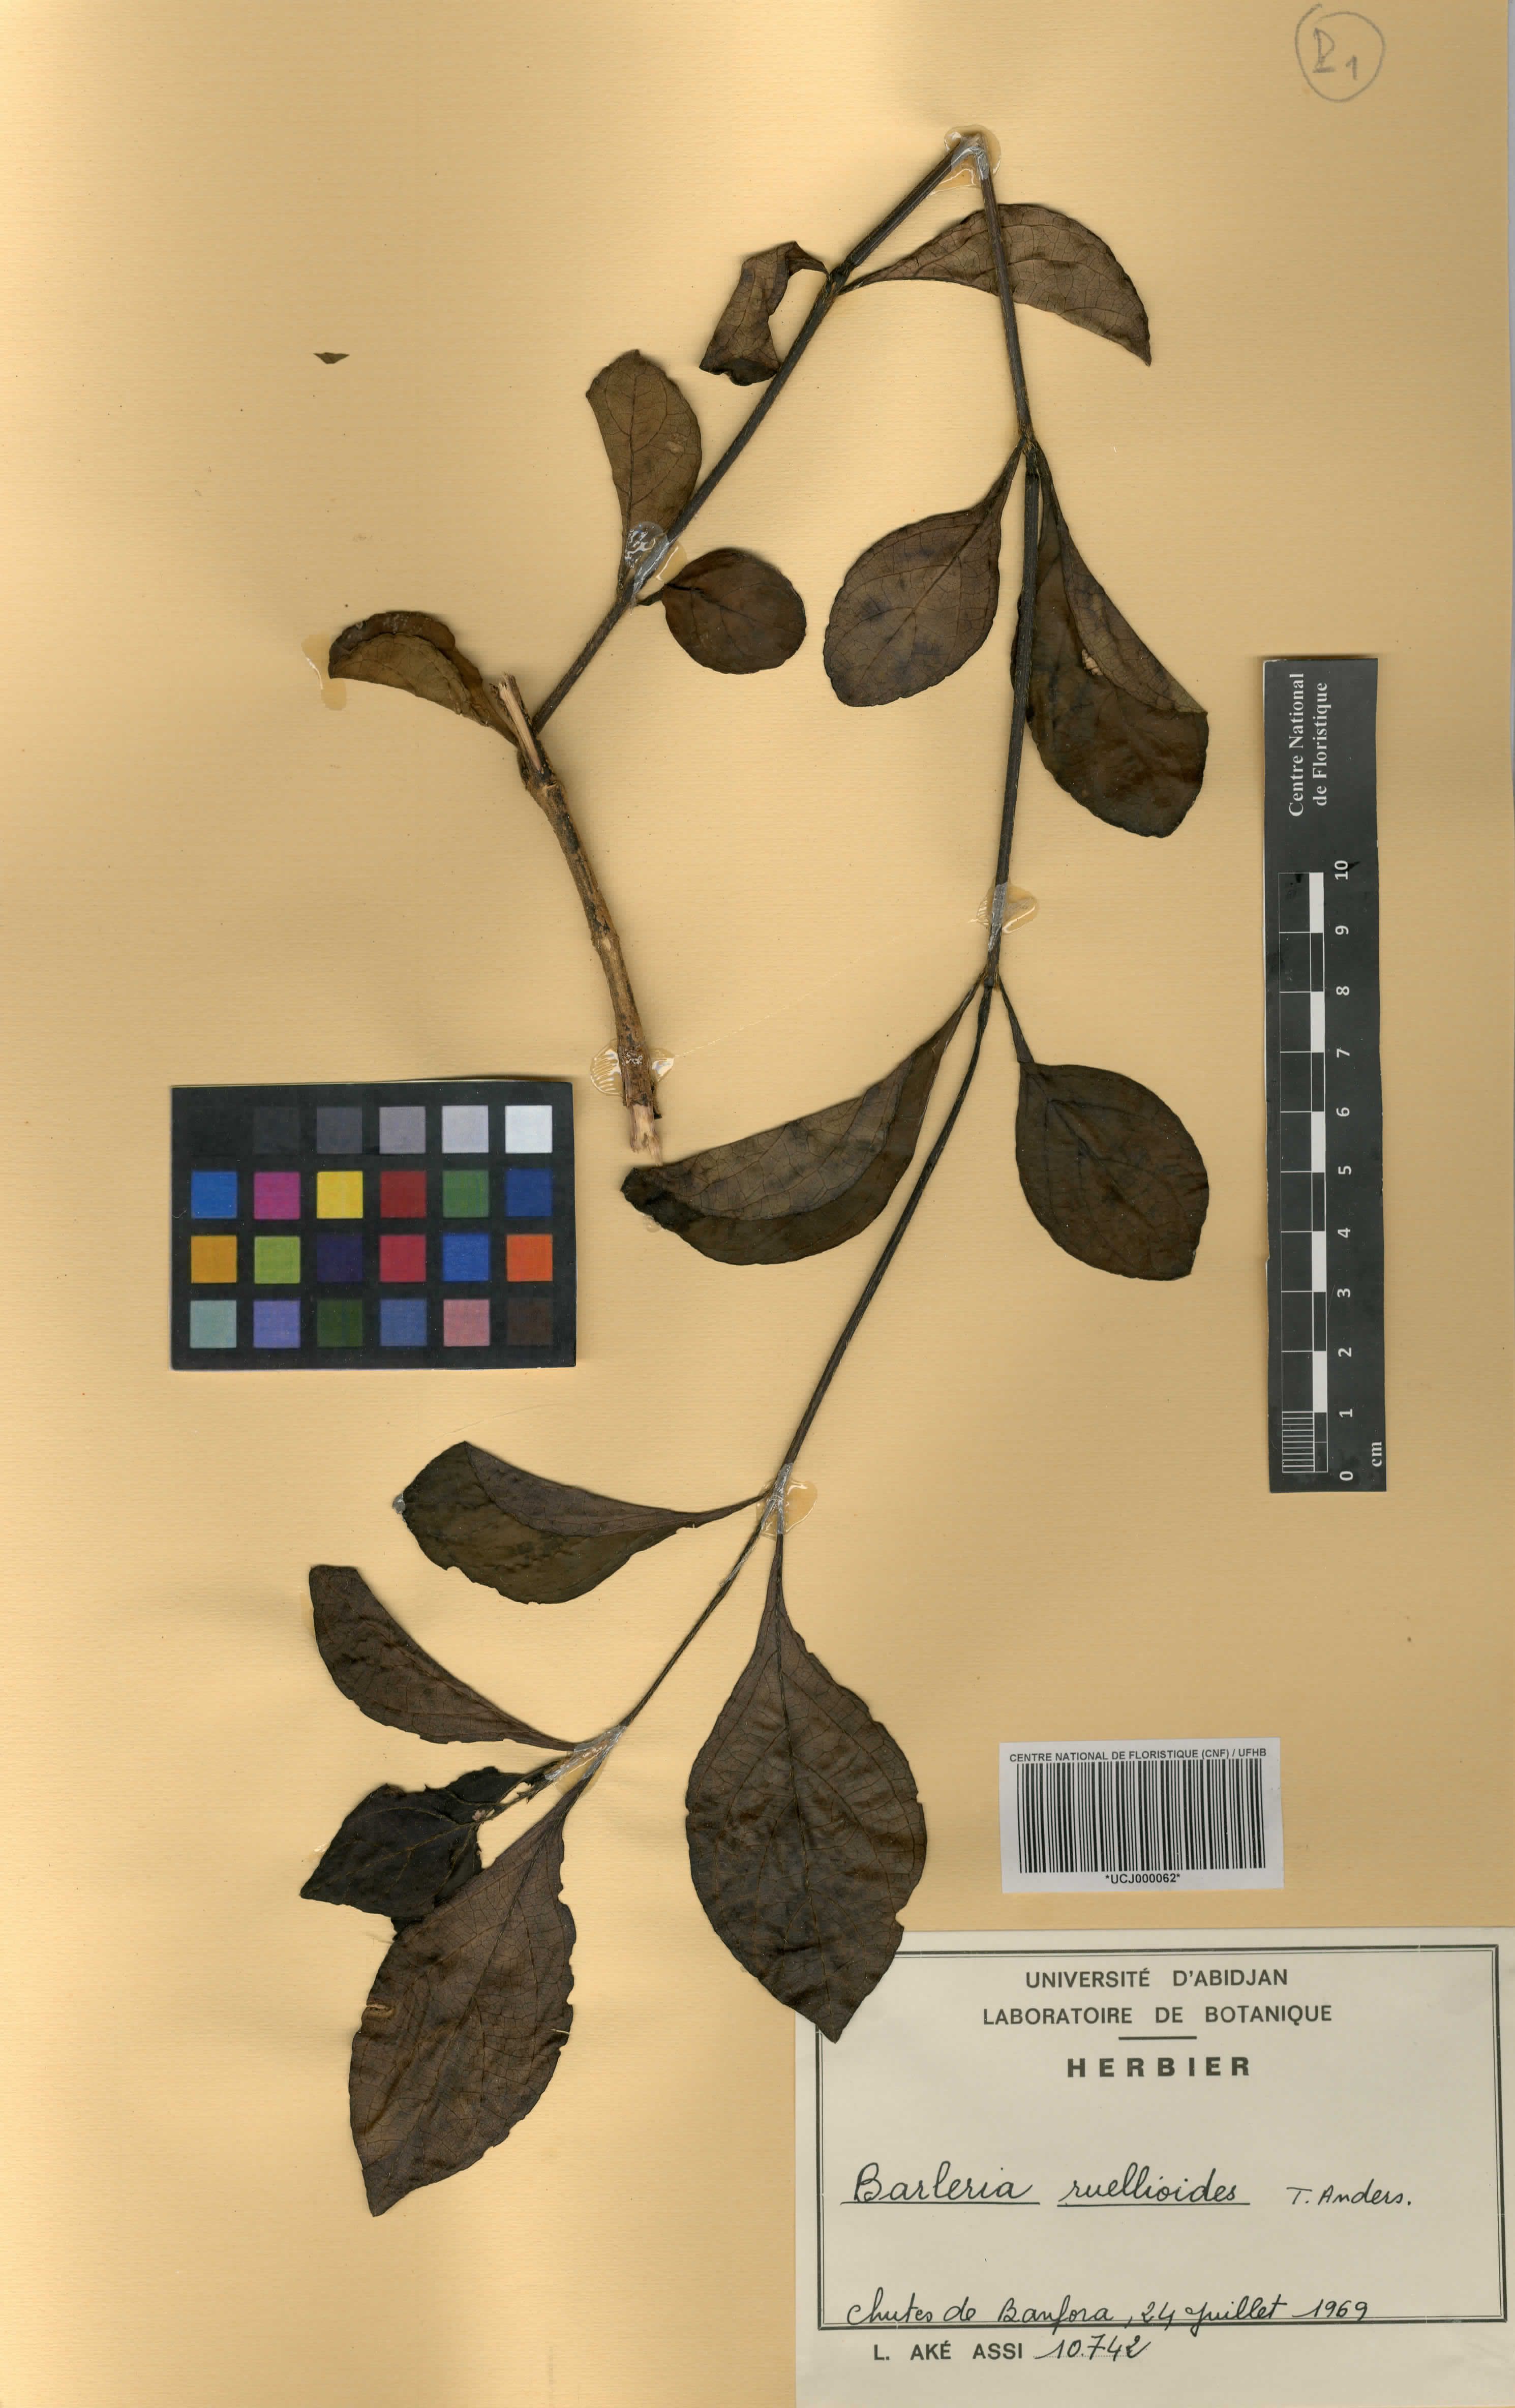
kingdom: Plantae
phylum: Tracheophyta
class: Magnoliopsida
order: Lamiales
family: Acanthaceae
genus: Barleria
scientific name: Barleria ruellioides
